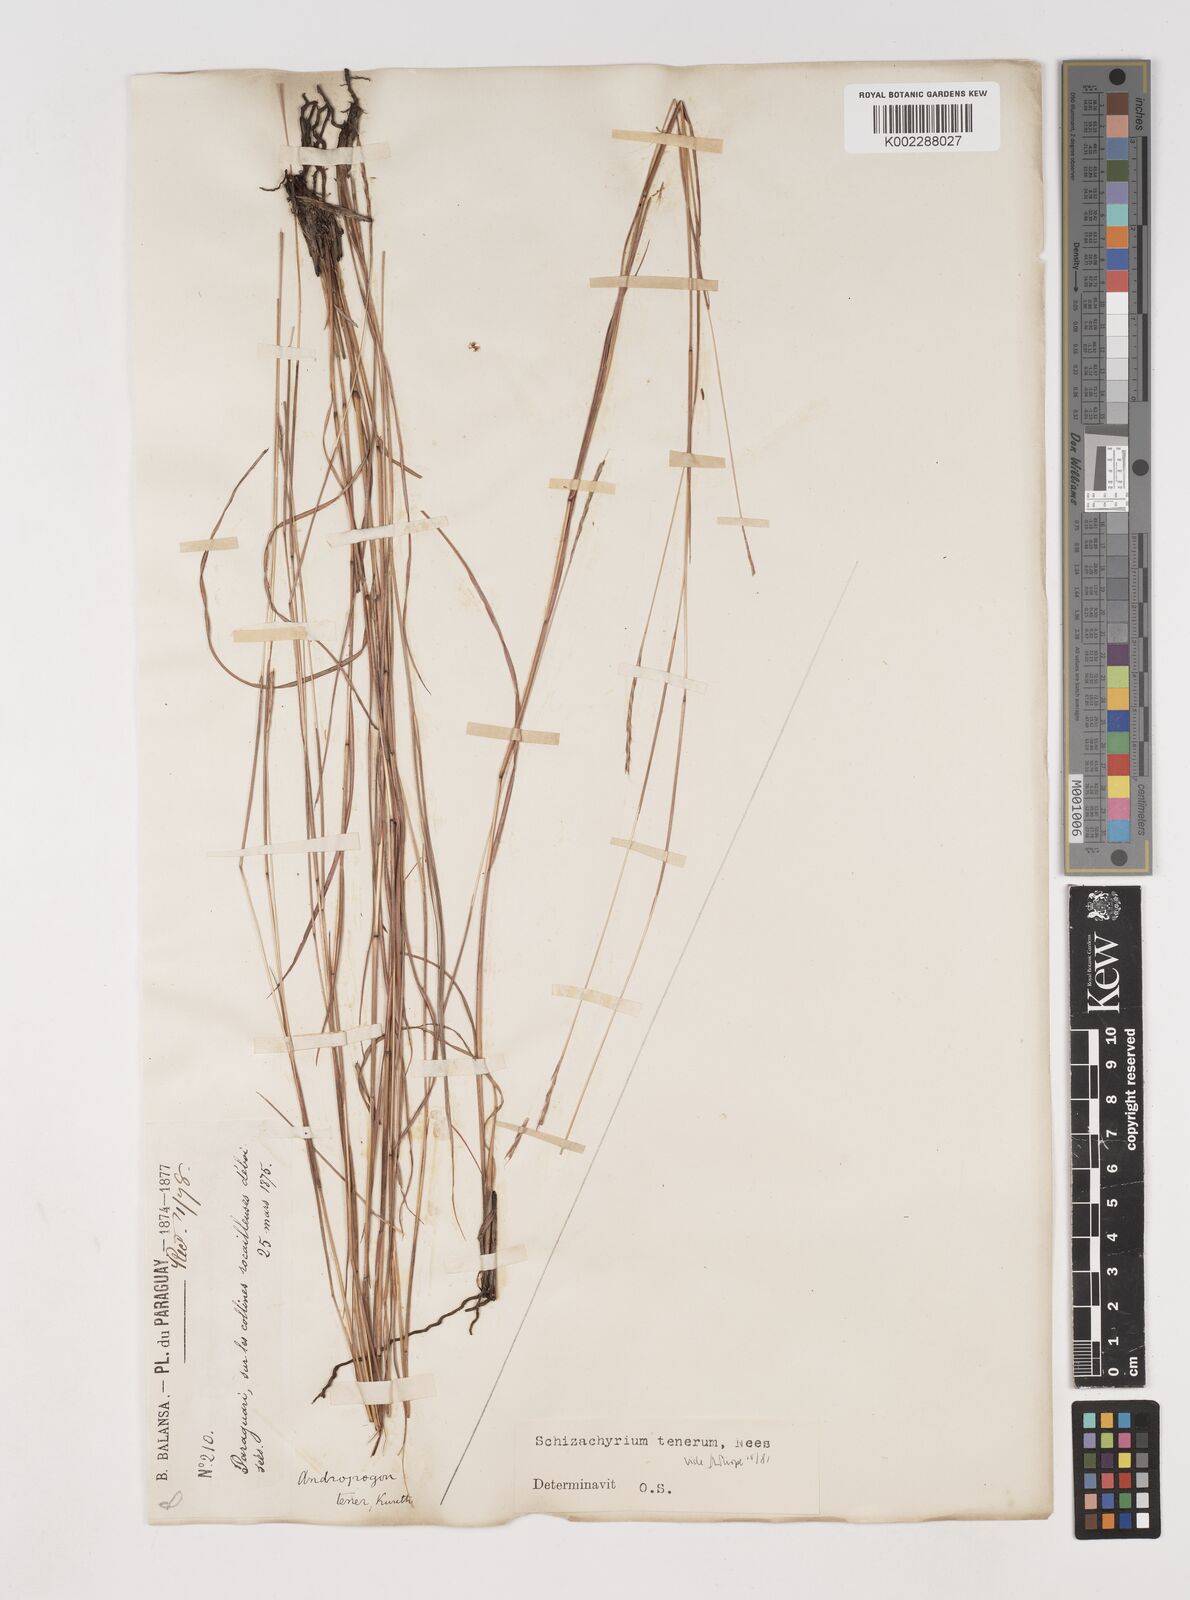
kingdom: Plantae
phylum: Tracheophyta
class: Liliopsida
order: Poales
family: Poaceae
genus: Andropogon
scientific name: Andropogon tener
